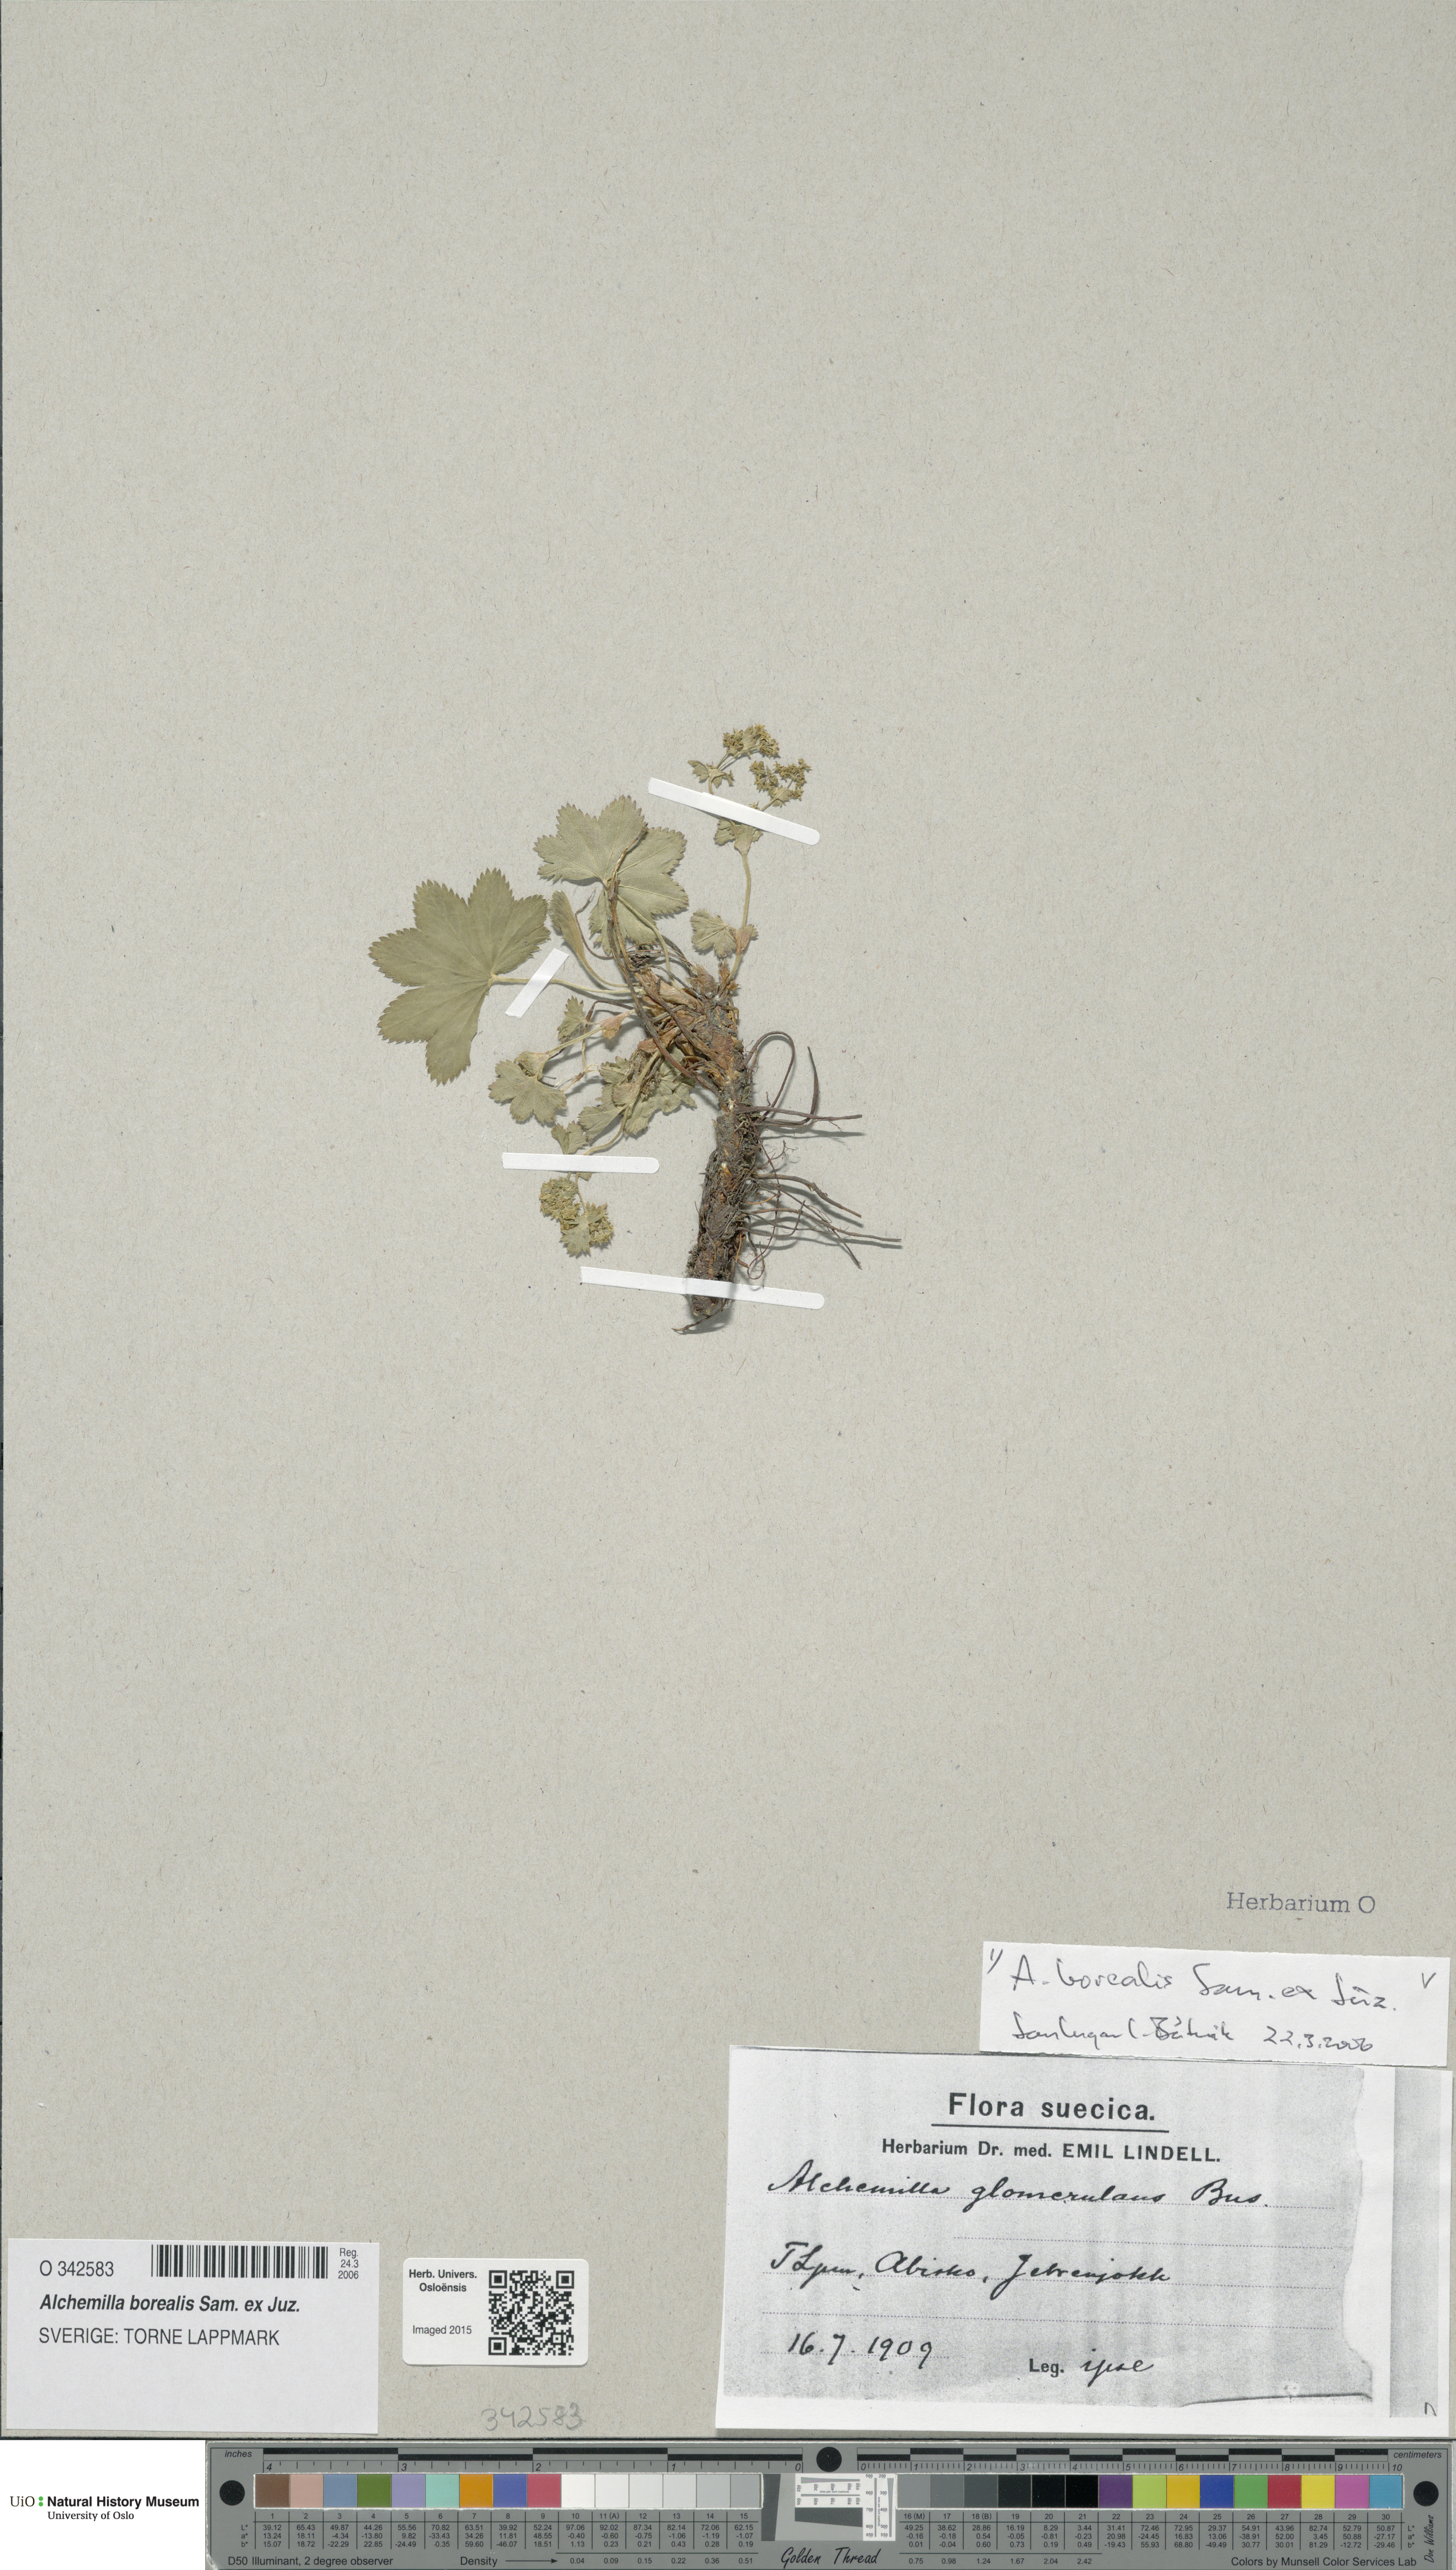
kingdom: Plantae
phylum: Tracheophyta
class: Magnoliopsida
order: Rosales
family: Rosaceae
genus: Alchemilla
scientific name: Alchemilla borealis
